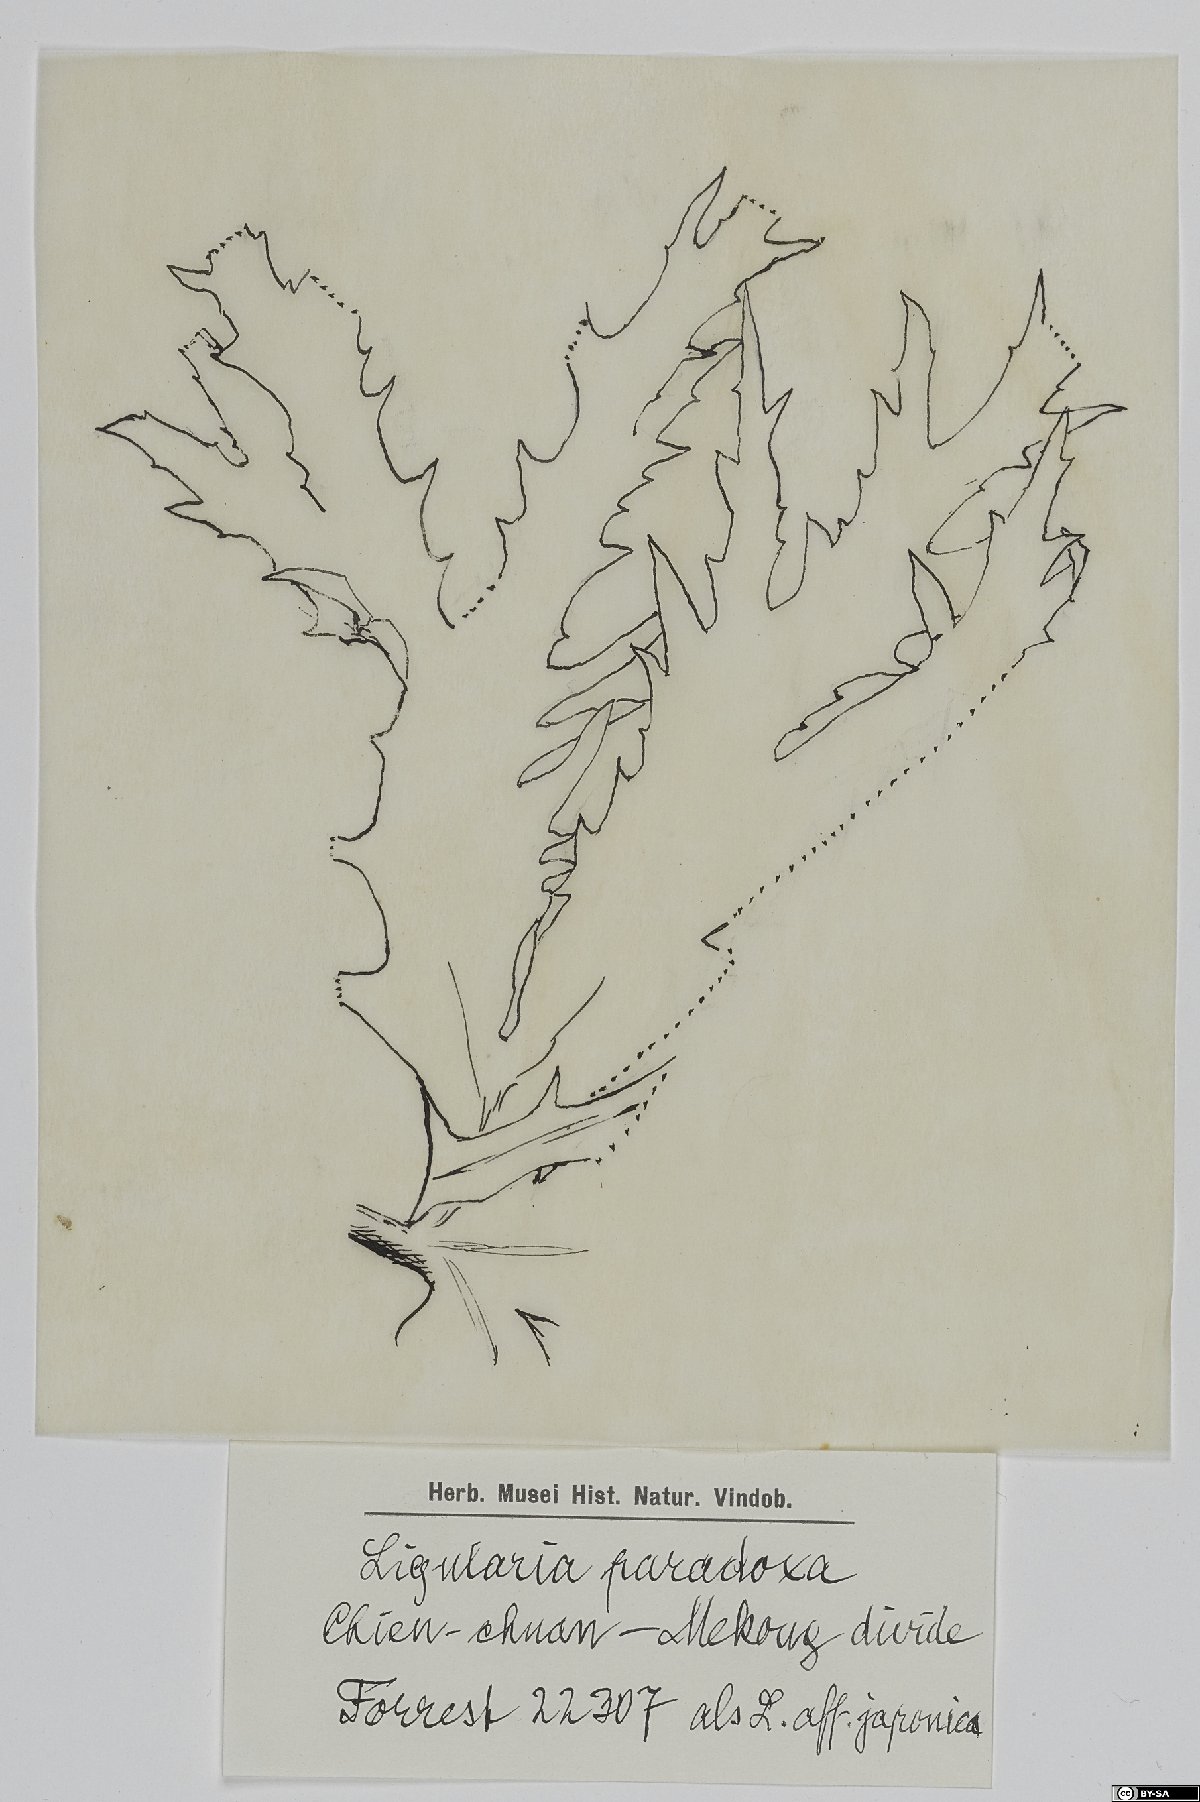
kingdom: Plantae
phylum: Tracheophyta
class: Magnoliopsida
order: Asterales
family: Asteraceae
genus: Ligularia
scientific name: Ligularia paradoxa
